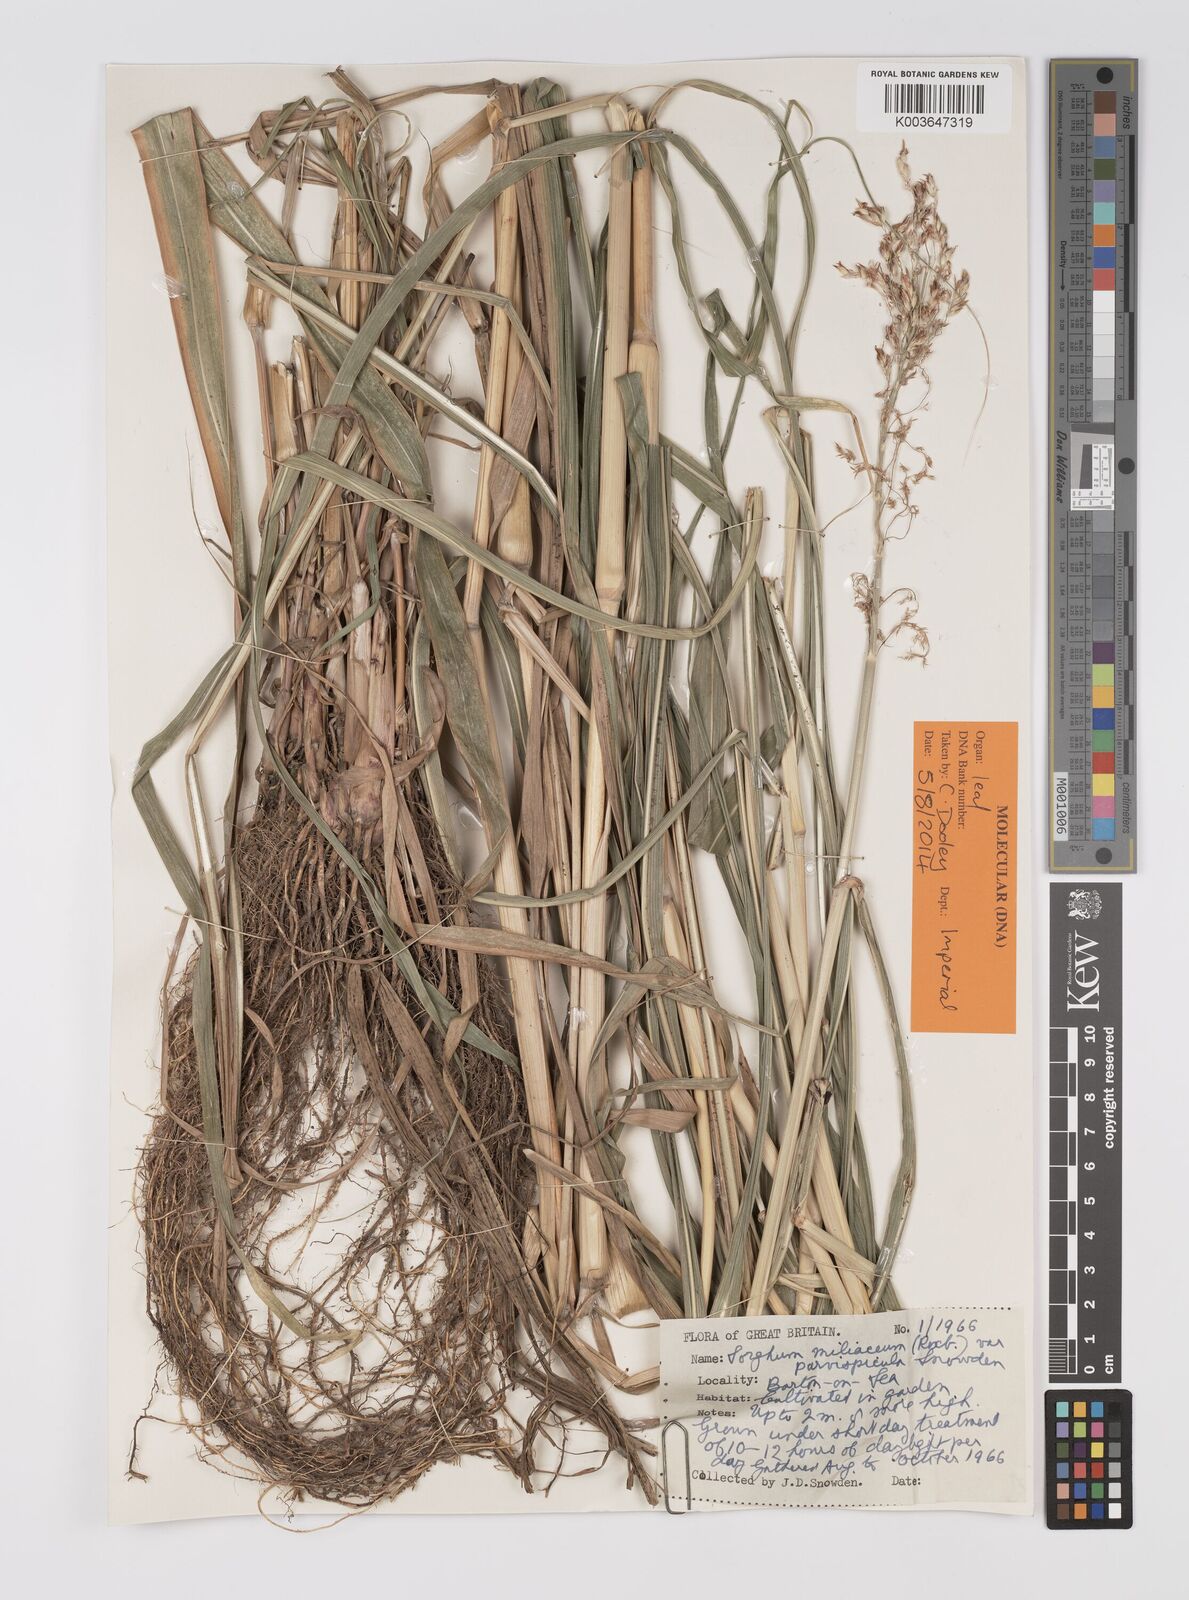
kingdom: Plantae
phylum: Tracheophyta
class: Liliopsida
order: Poales
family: Poaceae
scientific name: Poaceae
